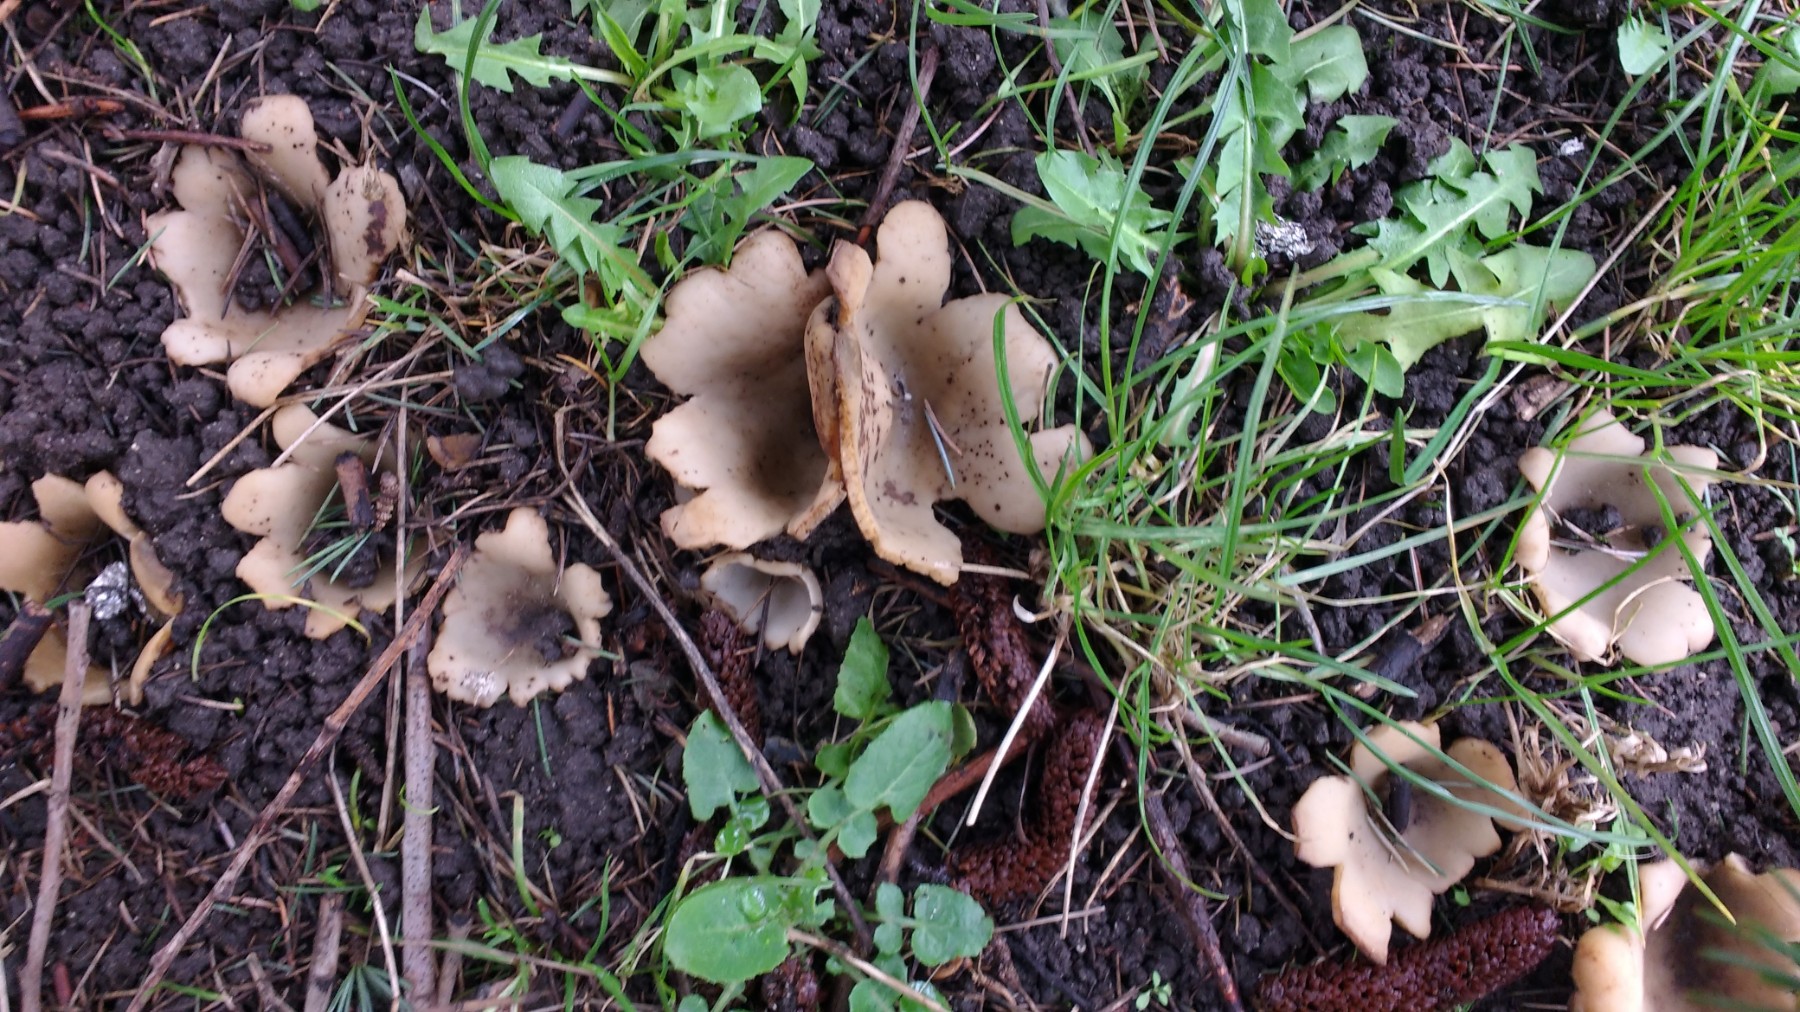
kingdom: Fungi
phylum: Ascomycota
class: Pezizomycetes
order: Pezizales
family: Pyronemataceae
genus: Geopora
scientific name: Geopora sumneriana
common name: vår-jordbæger
